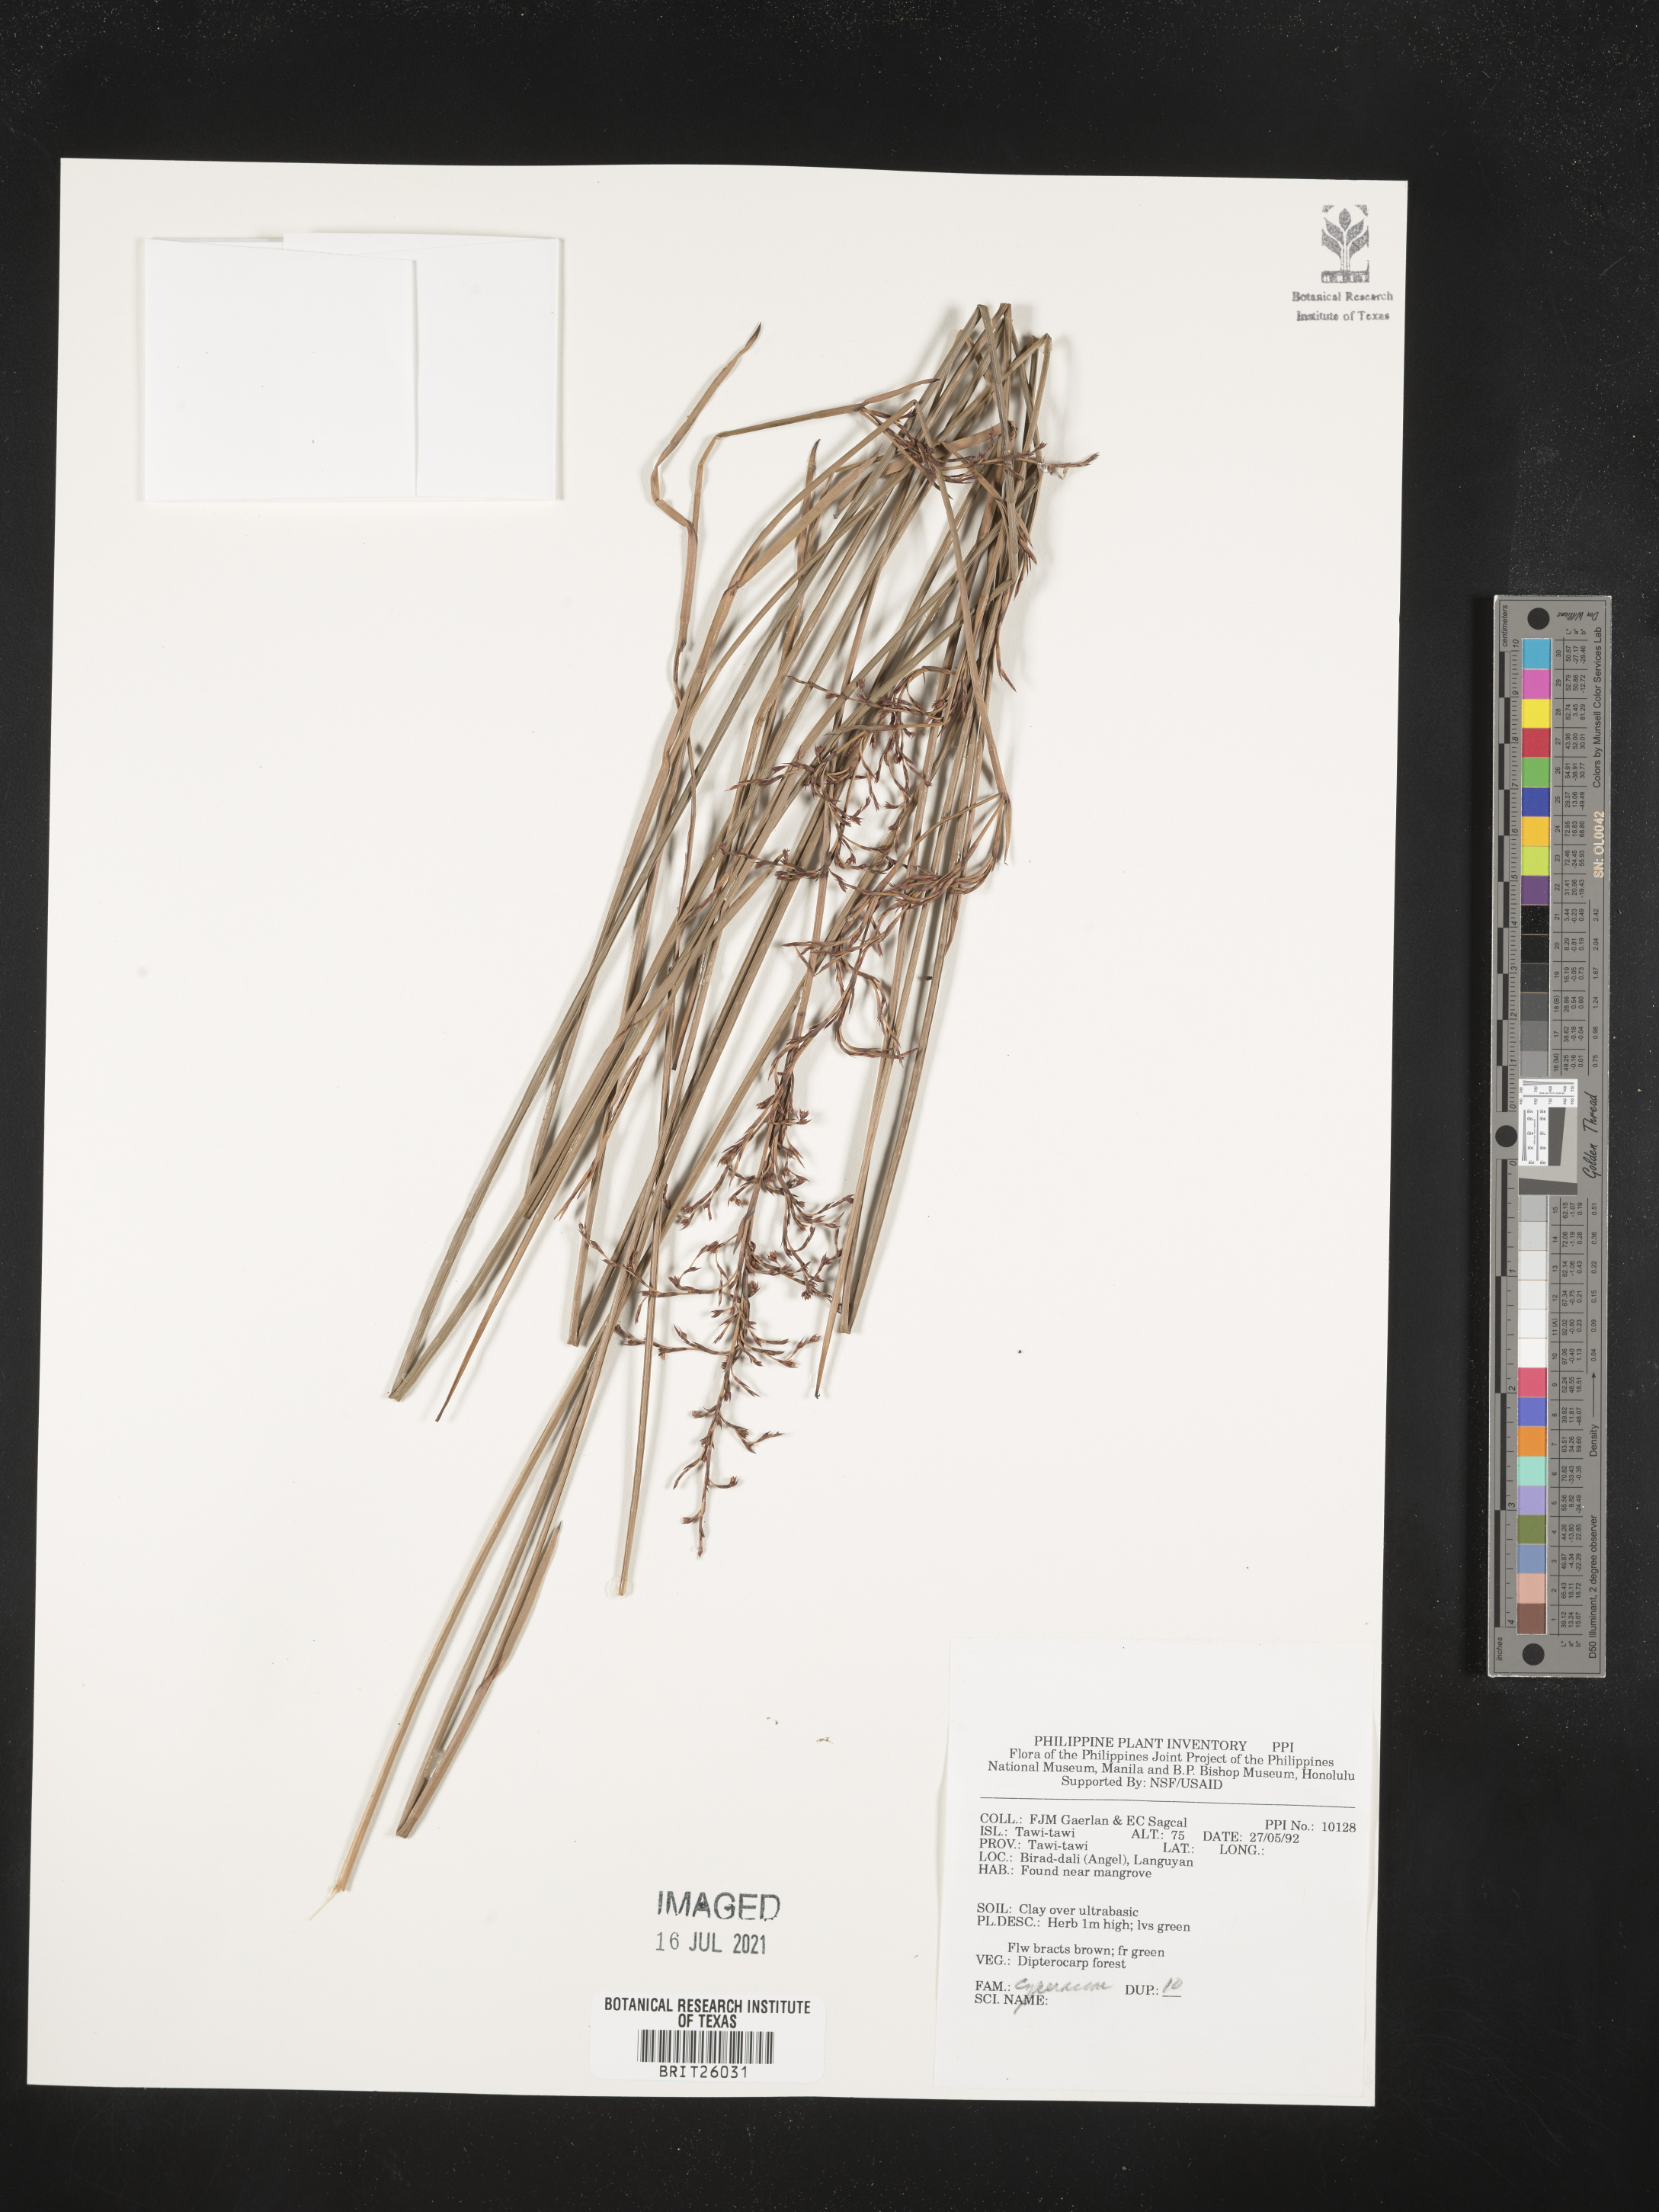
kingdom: Plantae
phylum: Tracheophyta
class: Liliopsida
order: Poales
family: Cyperaceae
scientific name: Cyperaceae
